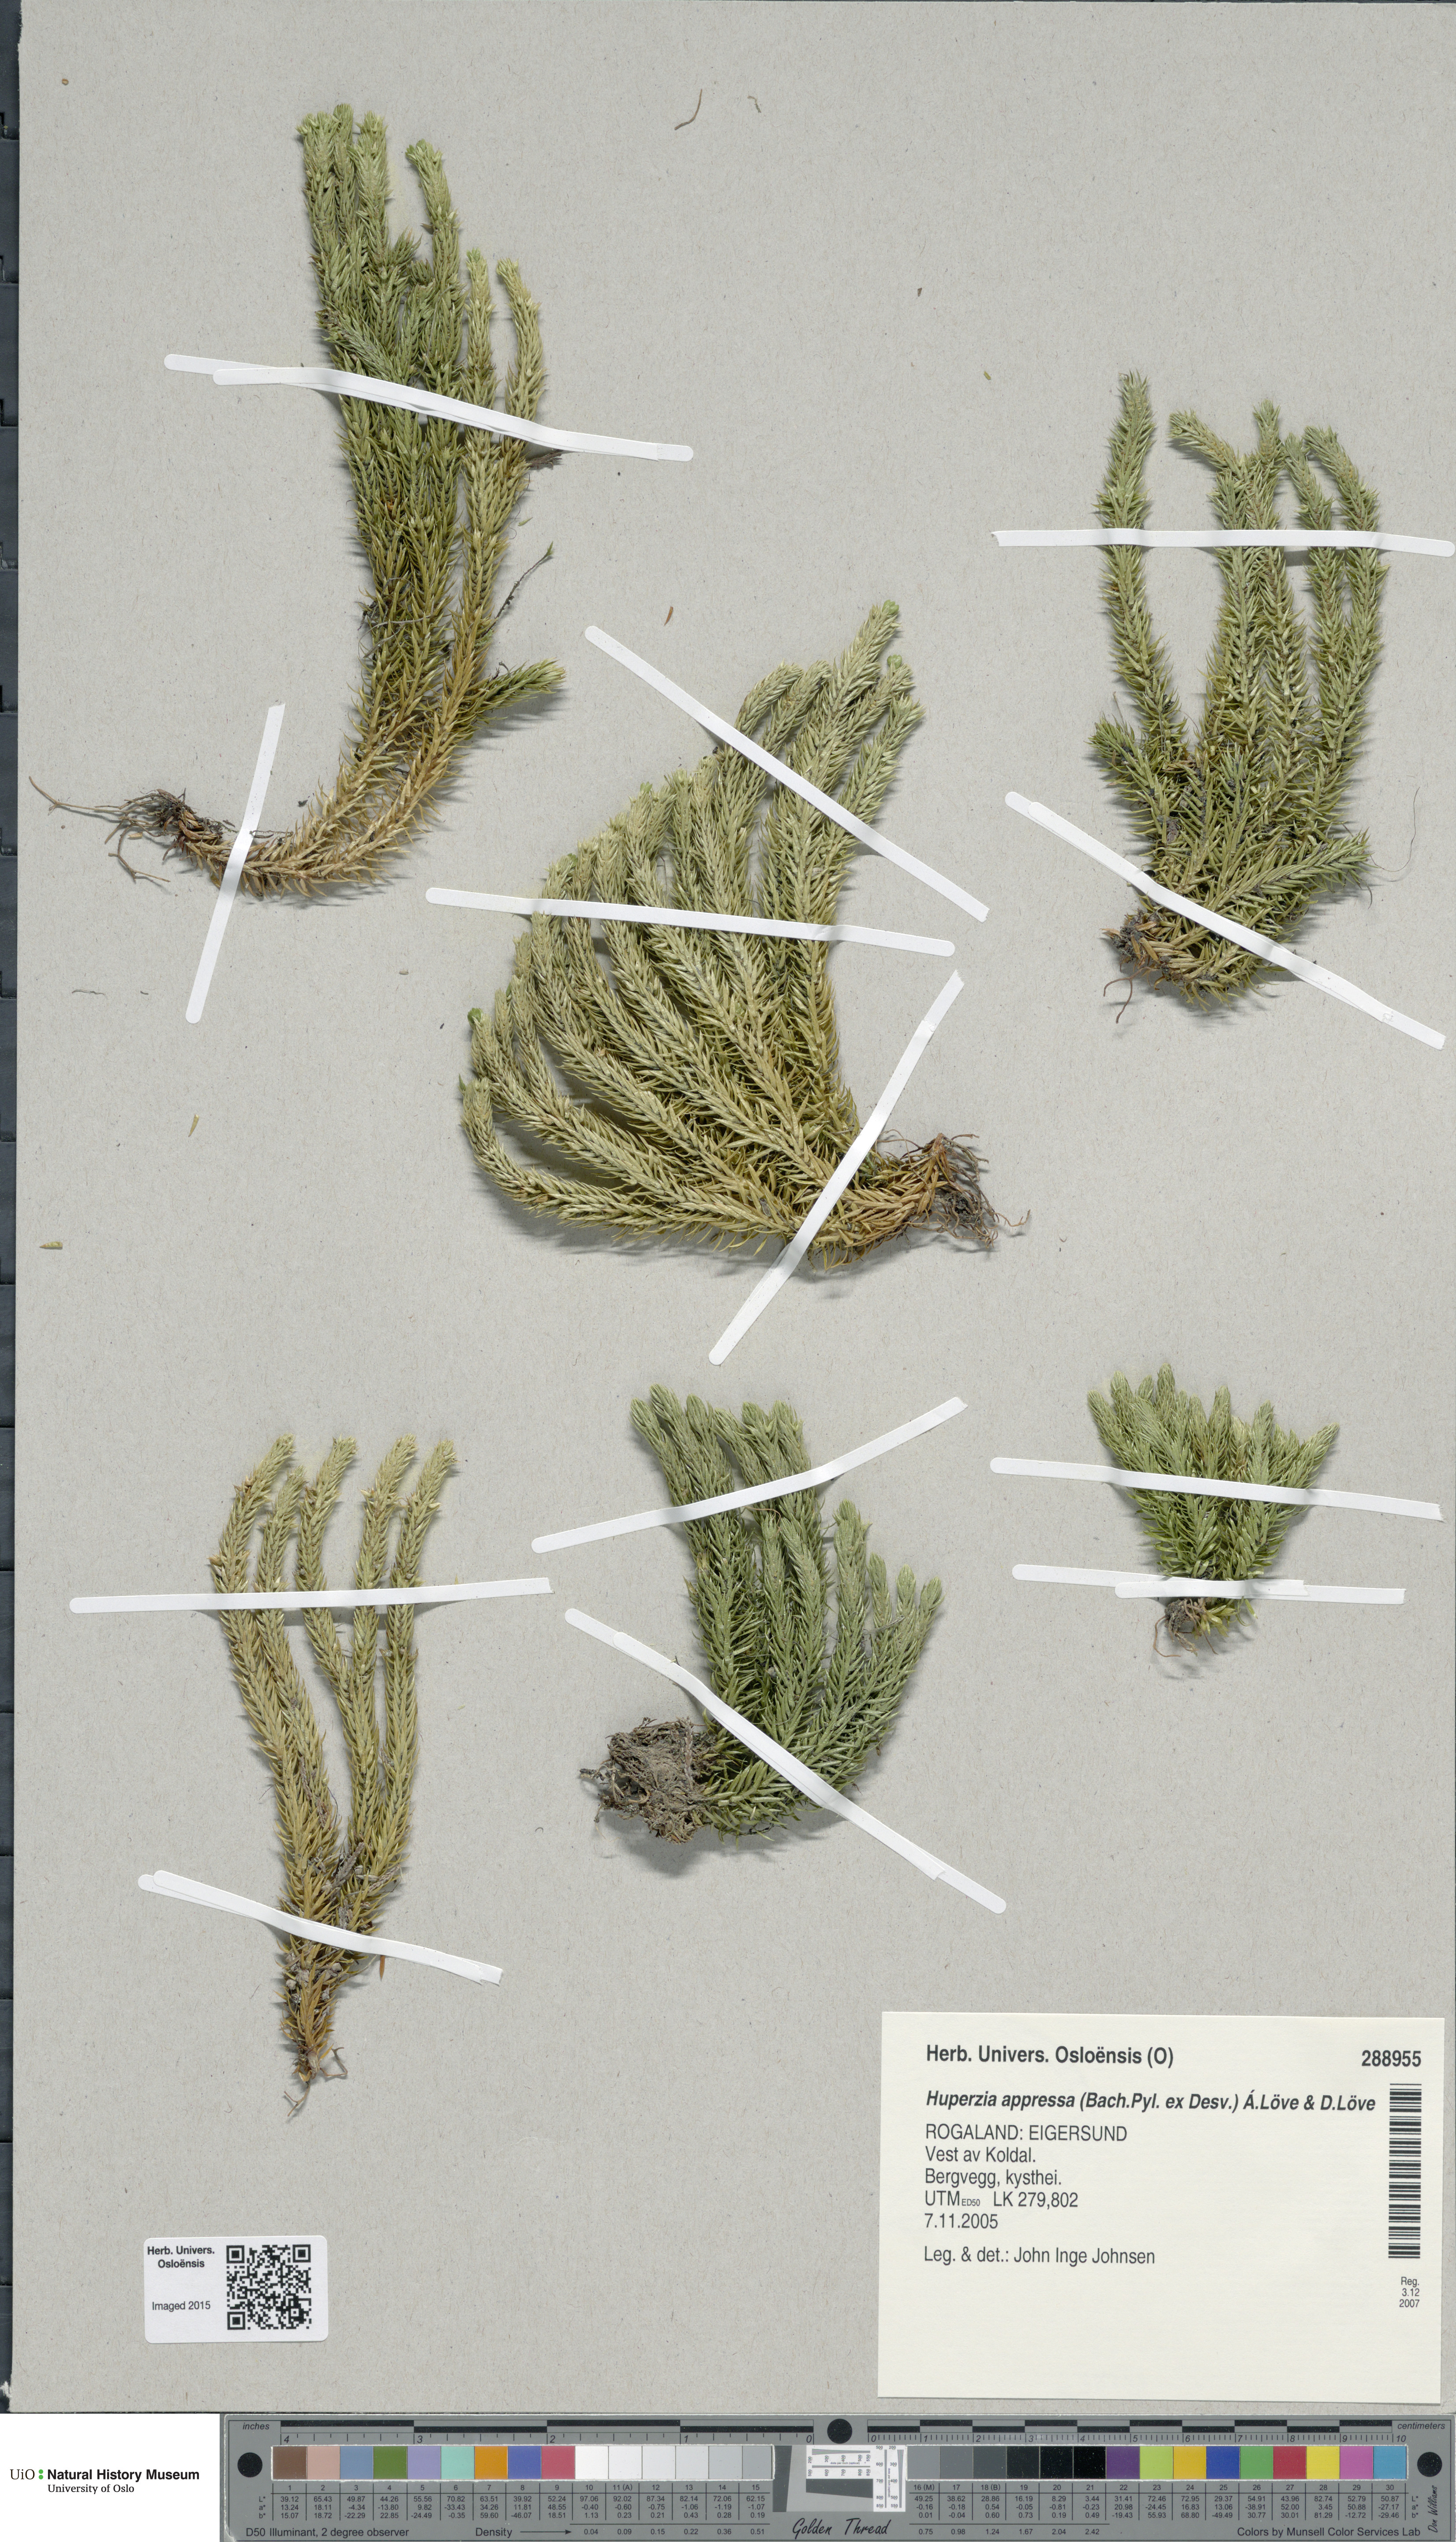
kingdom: Plantae
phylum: Tracheophyta
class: Lycopodiopsida
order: Lycopodiales
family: Lycopodiaceae
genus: Huperzia
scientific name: Huperzia selago
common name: Northern firmoss
